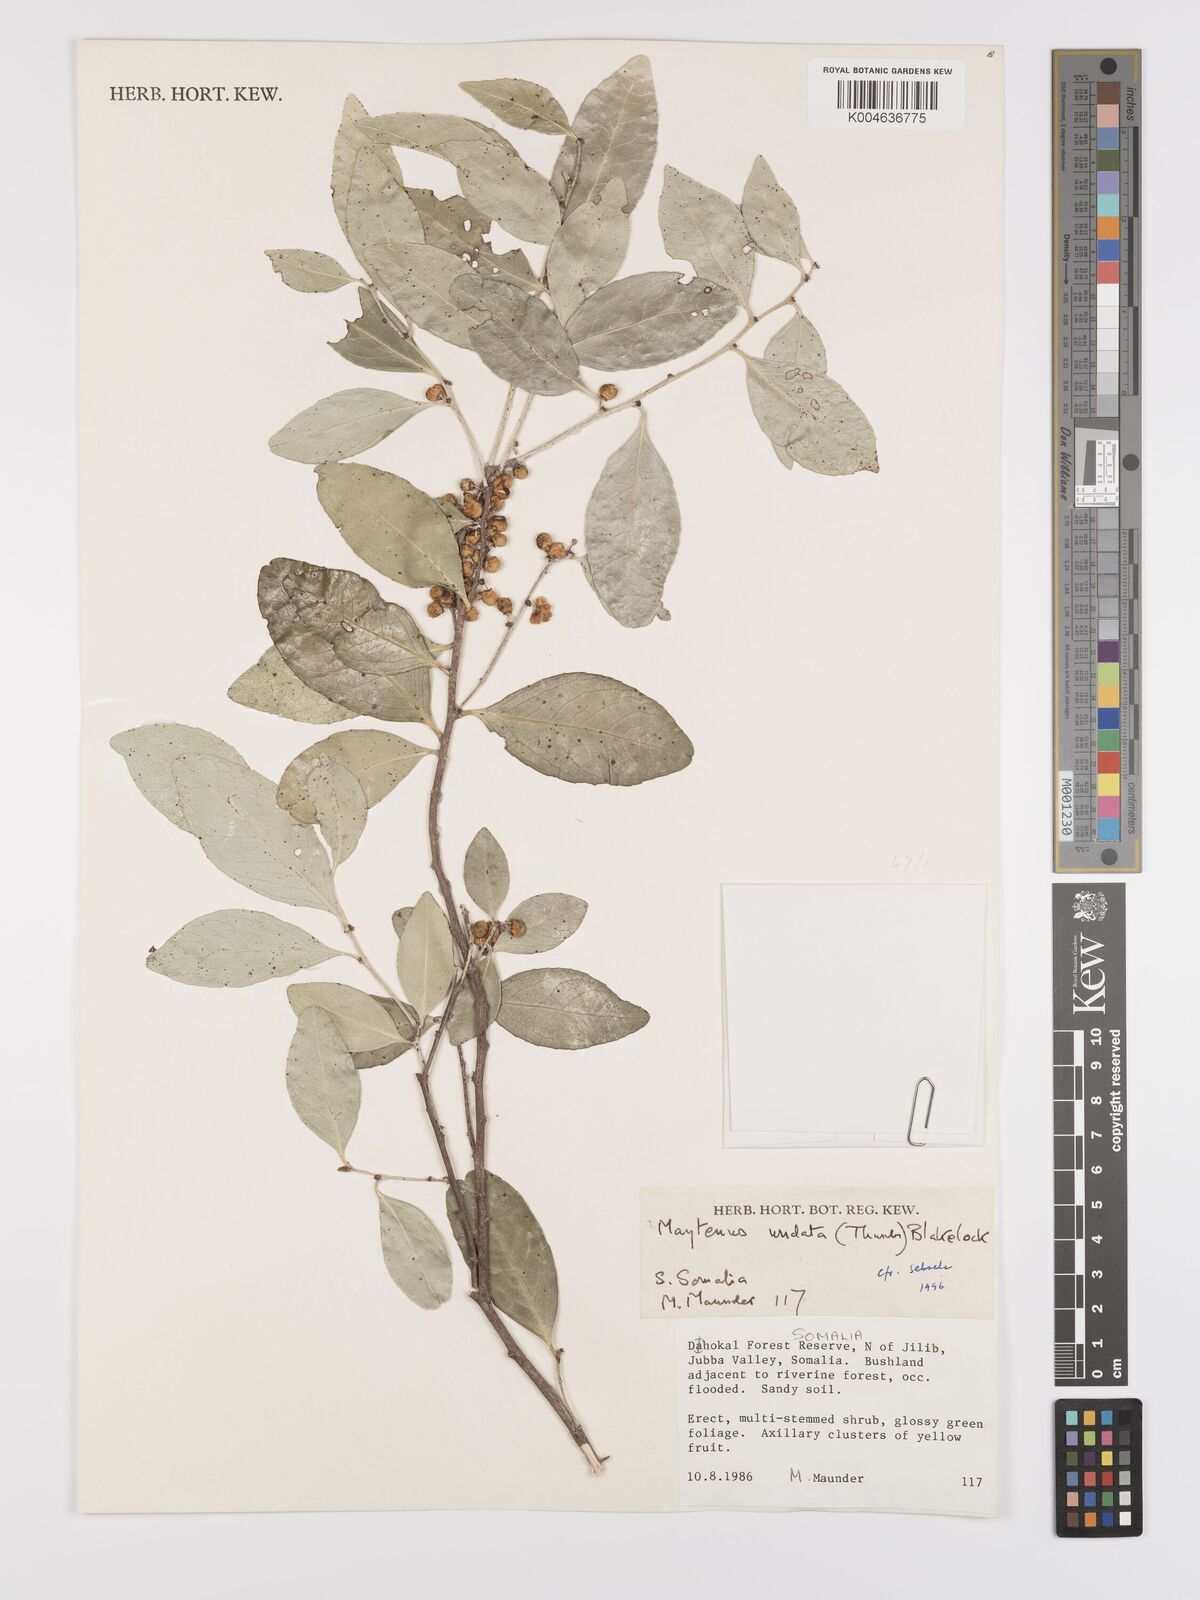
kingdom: Plantae
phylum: Tracheophyta
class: Magnoliopsida
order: Celastrales
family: Celastraceae
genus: Gymnosporia
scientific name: Gymnosporia undata
